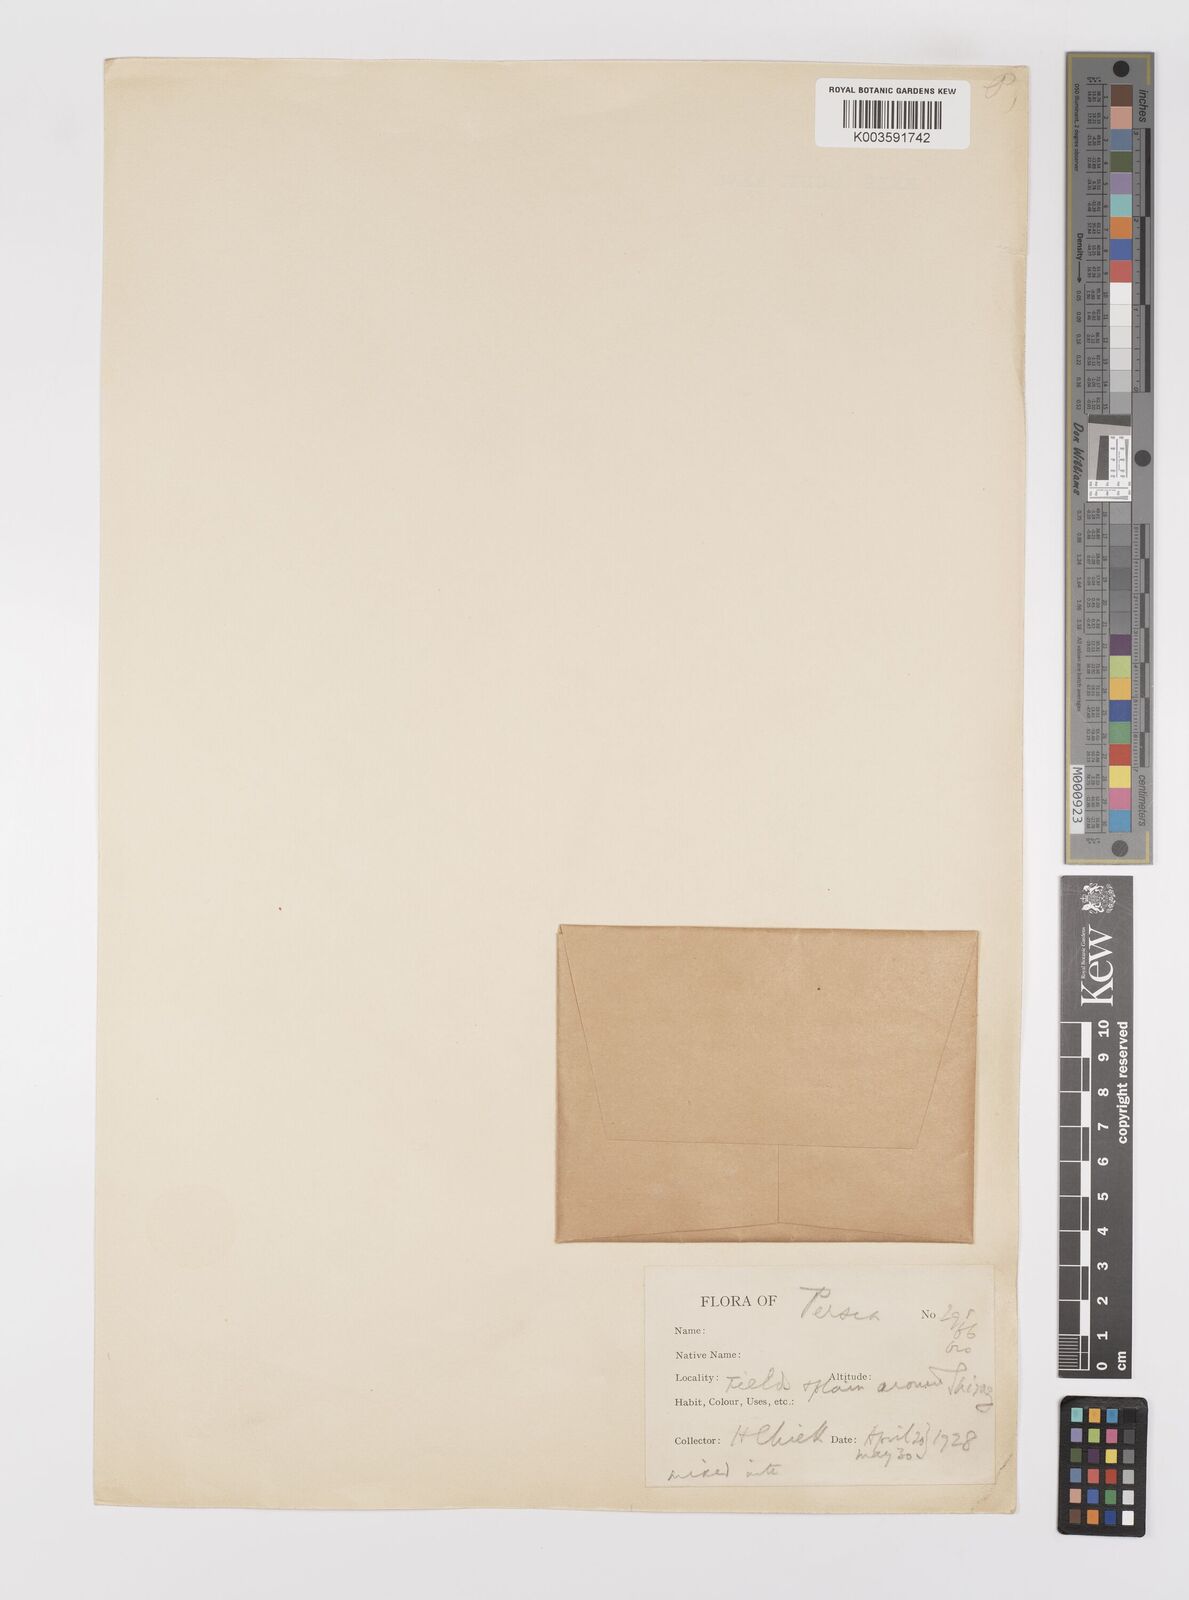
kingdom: Plantae
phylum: Tracheophyta
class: Liliopsida
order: Poales
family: Poaceae
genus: Psathyrostachys
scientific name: Psathyrostachys fragilis
